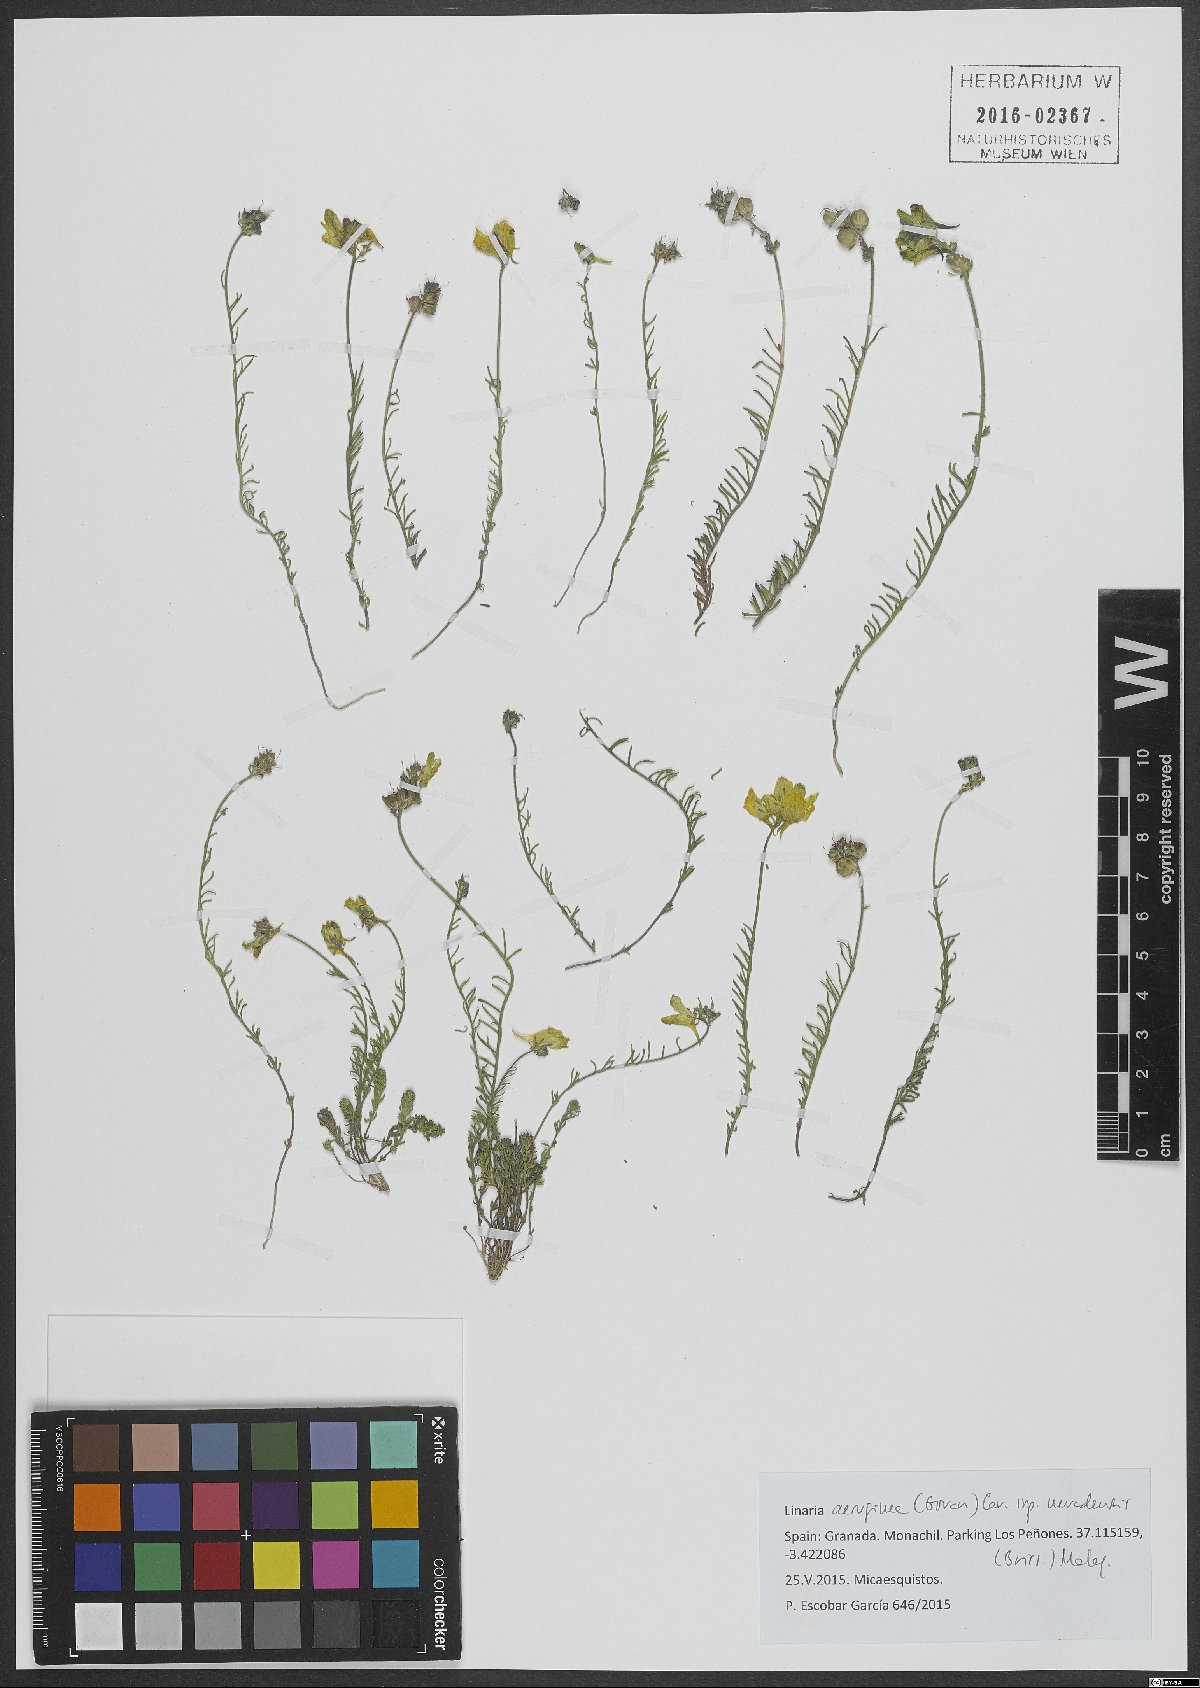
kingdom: Plantae
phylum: Tracheophyta
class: Magnoliopsida
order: Lamiales
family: Plantaginaceae
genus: Linaria
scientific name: Linaria aeruginea
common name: Roadside toadflax
